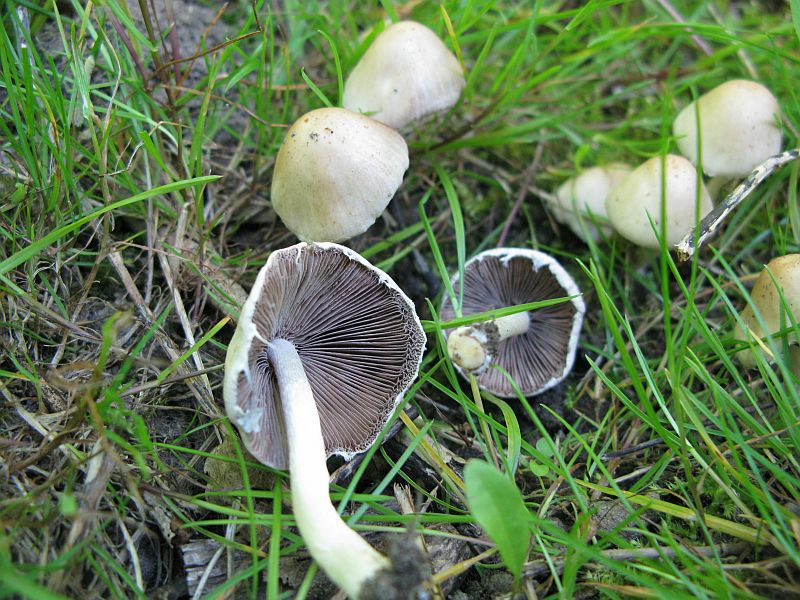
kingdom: Fungi
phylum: Basidiomycota
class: Agaricomycetes
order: Agaricales
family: Psathyrellaceae
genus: Candolleomyces
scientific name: Candolleomyces candolleanus
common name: Candolles mørkhat
